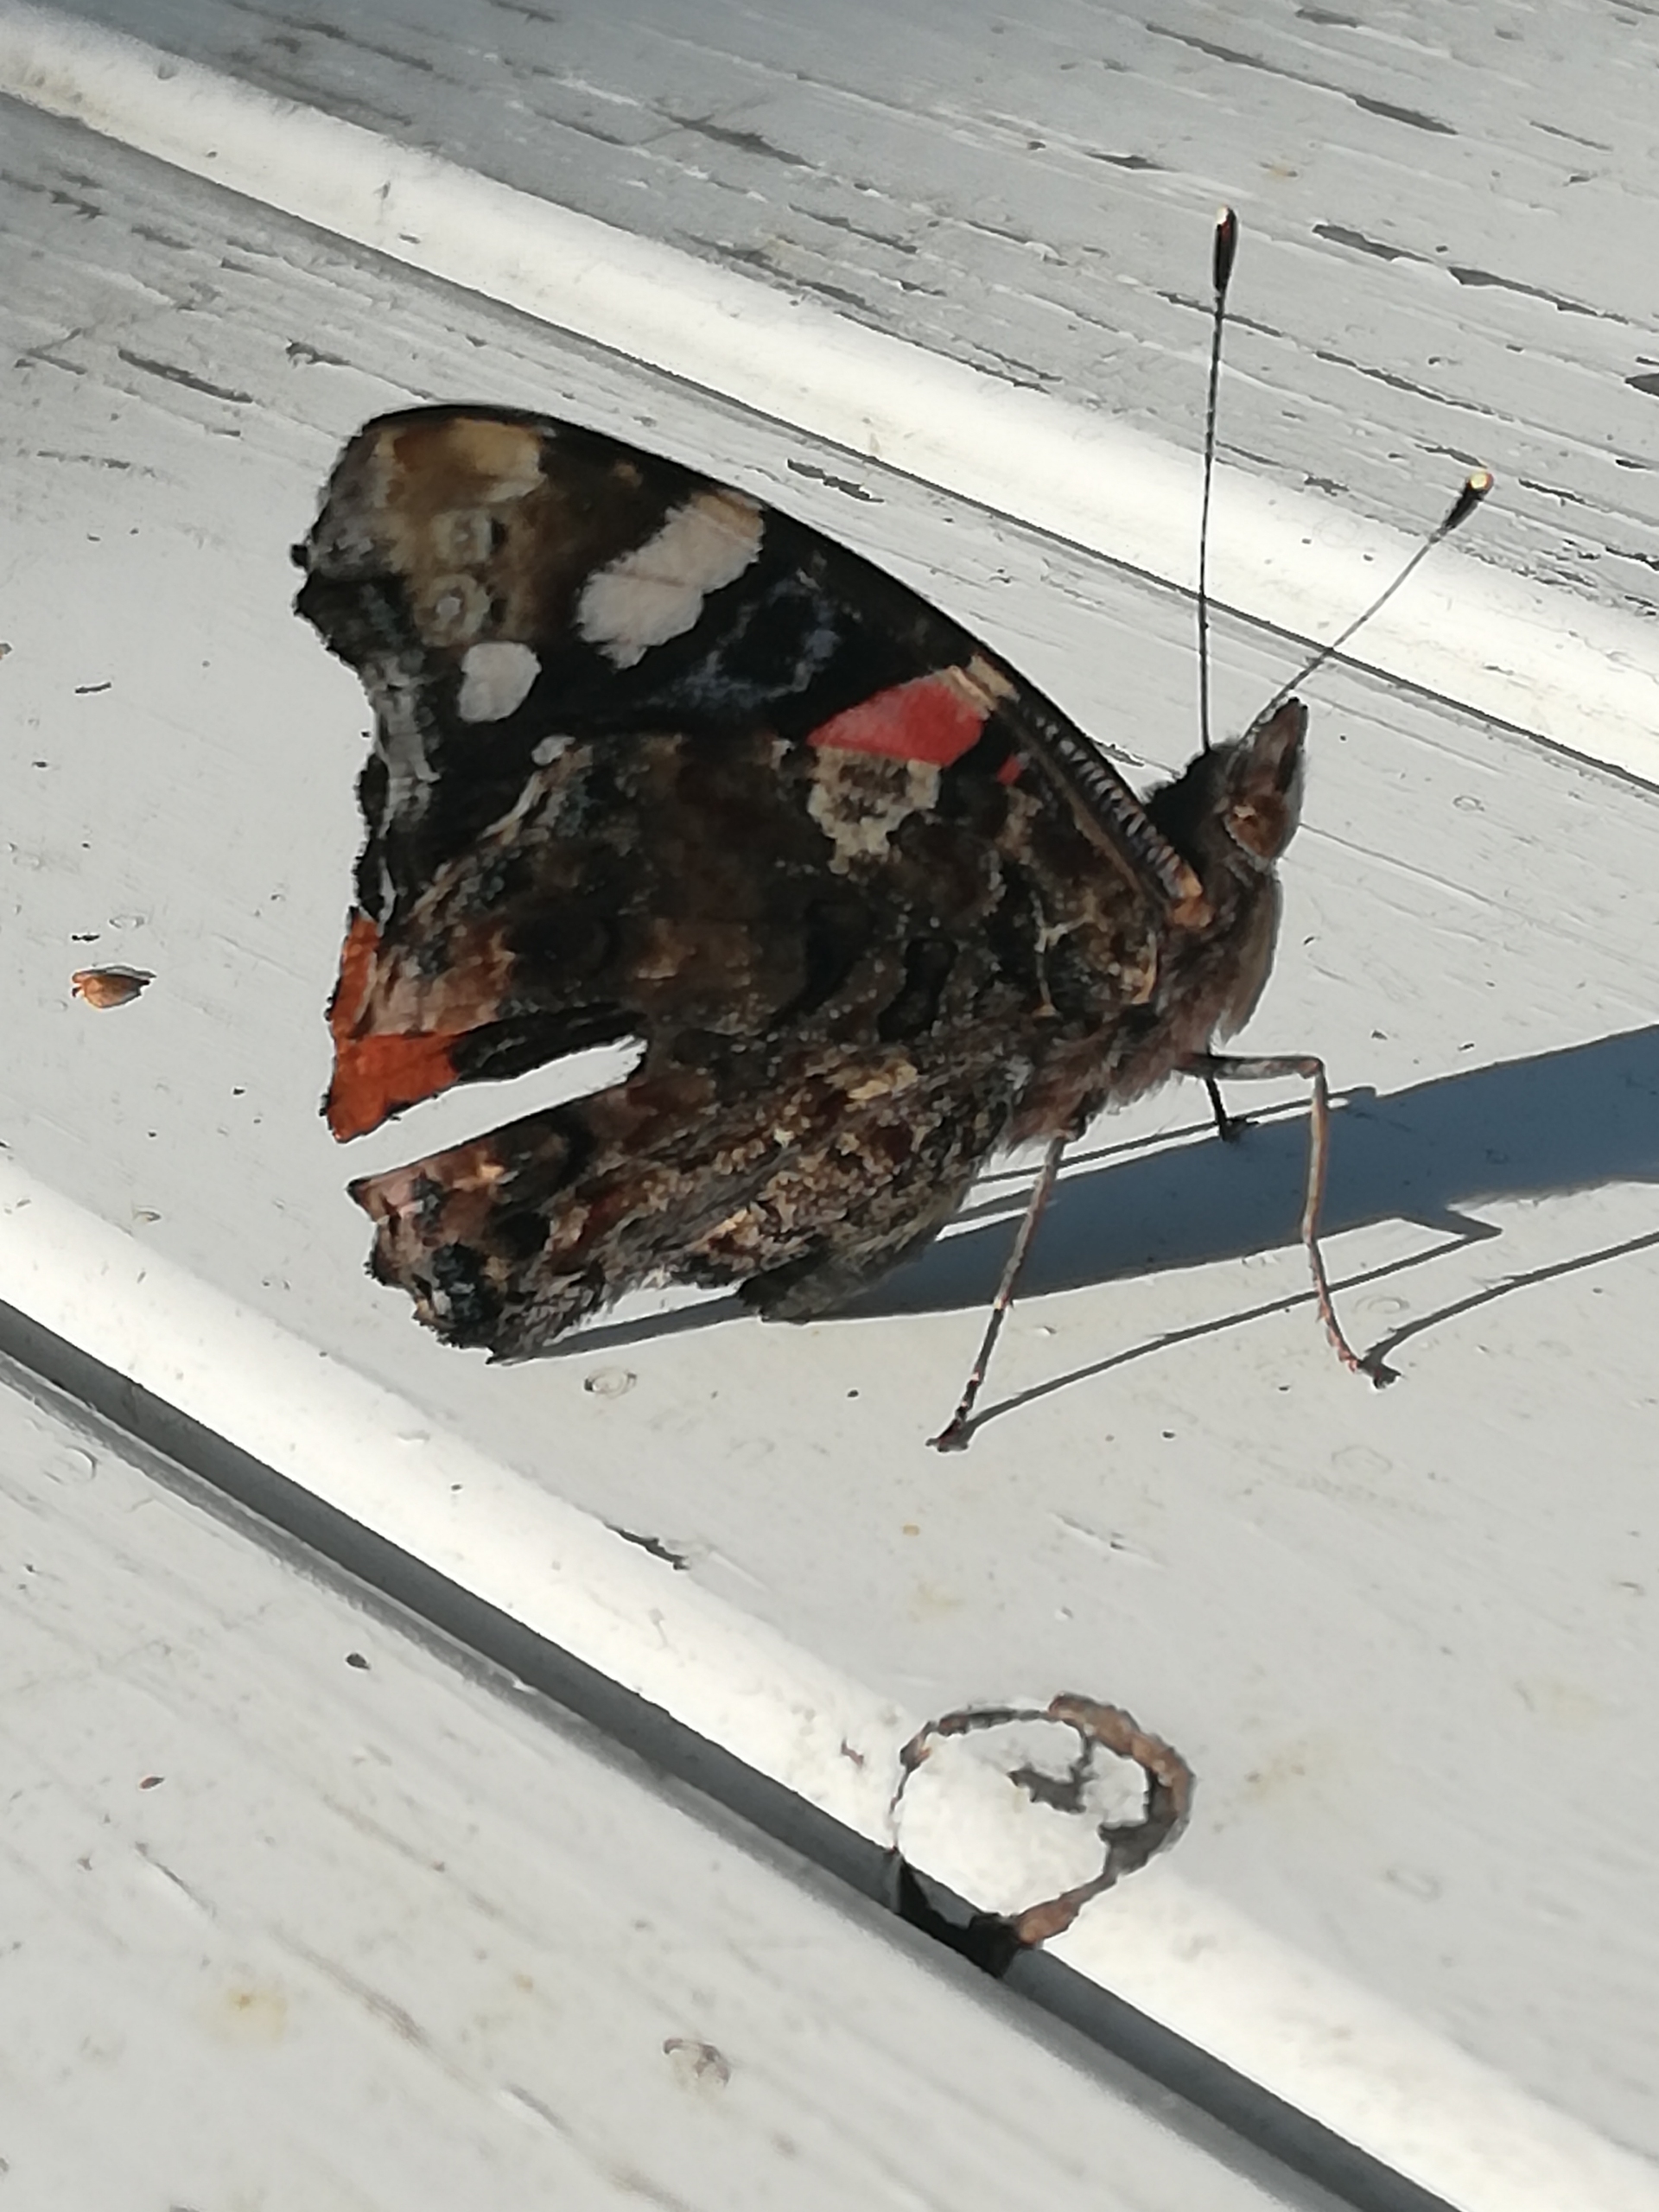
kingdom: Animalia
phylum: Arthropoda
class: Insecta
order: Lepidoptera
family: Nymphalidae
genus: Vanessa
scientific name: Vanessa atalanta
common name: Admiral
